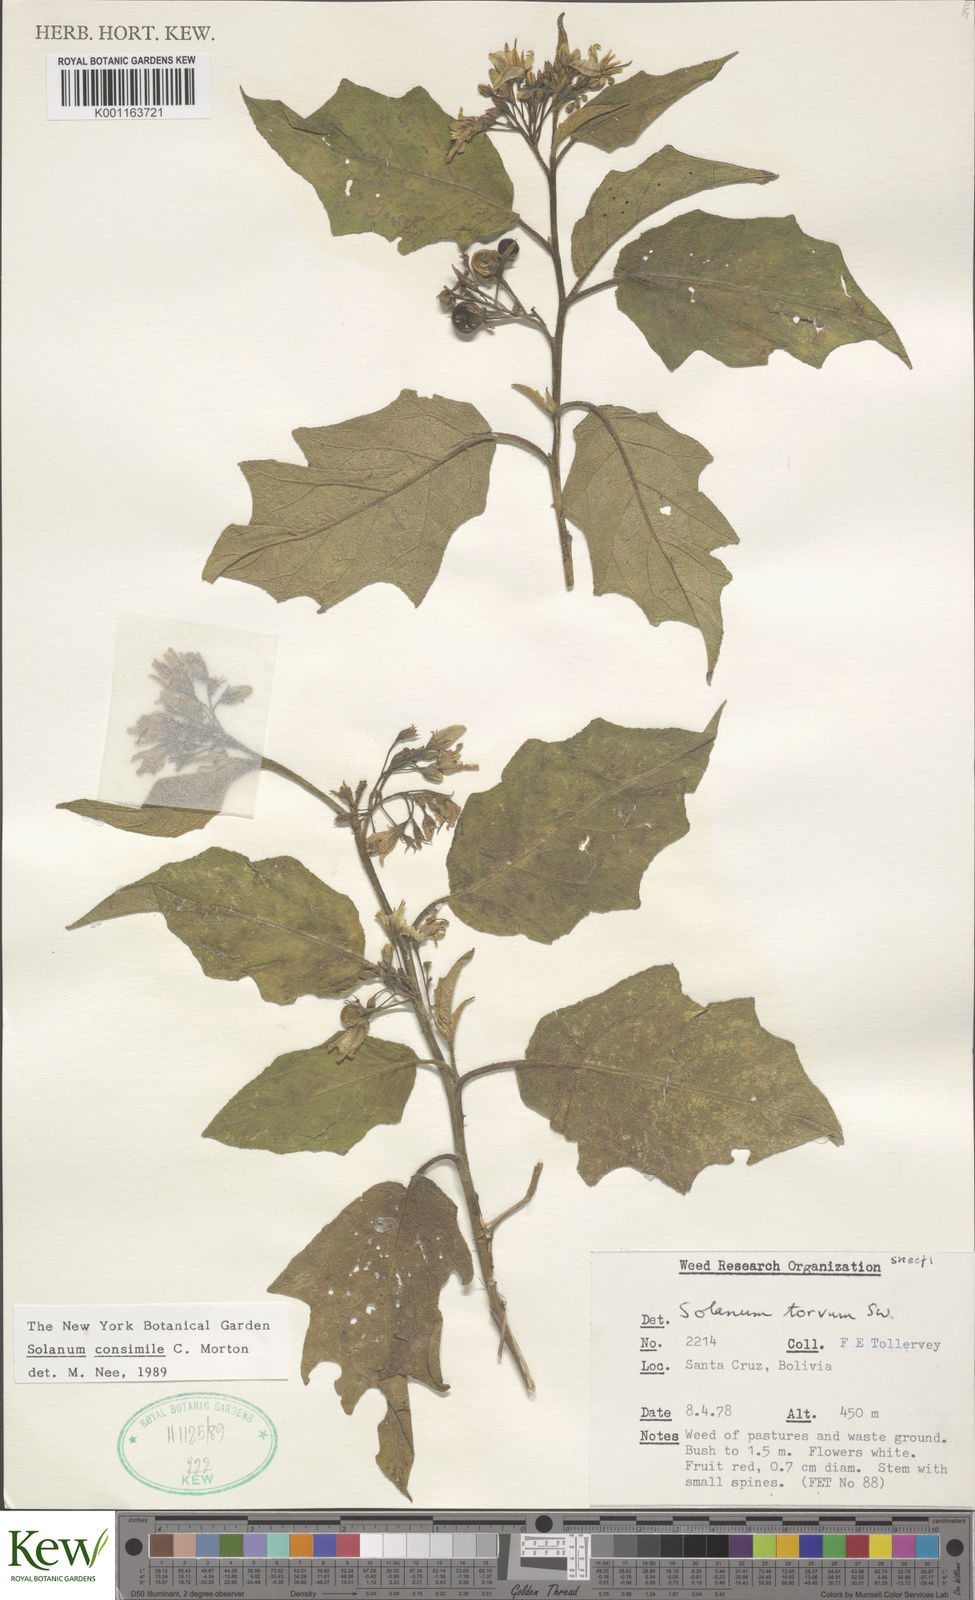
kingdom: Plantae
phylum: Tracheophyta
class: Magnoliopsida
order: Solanales
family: Solanaceae
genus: Solanum
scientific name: Solanum consimile
